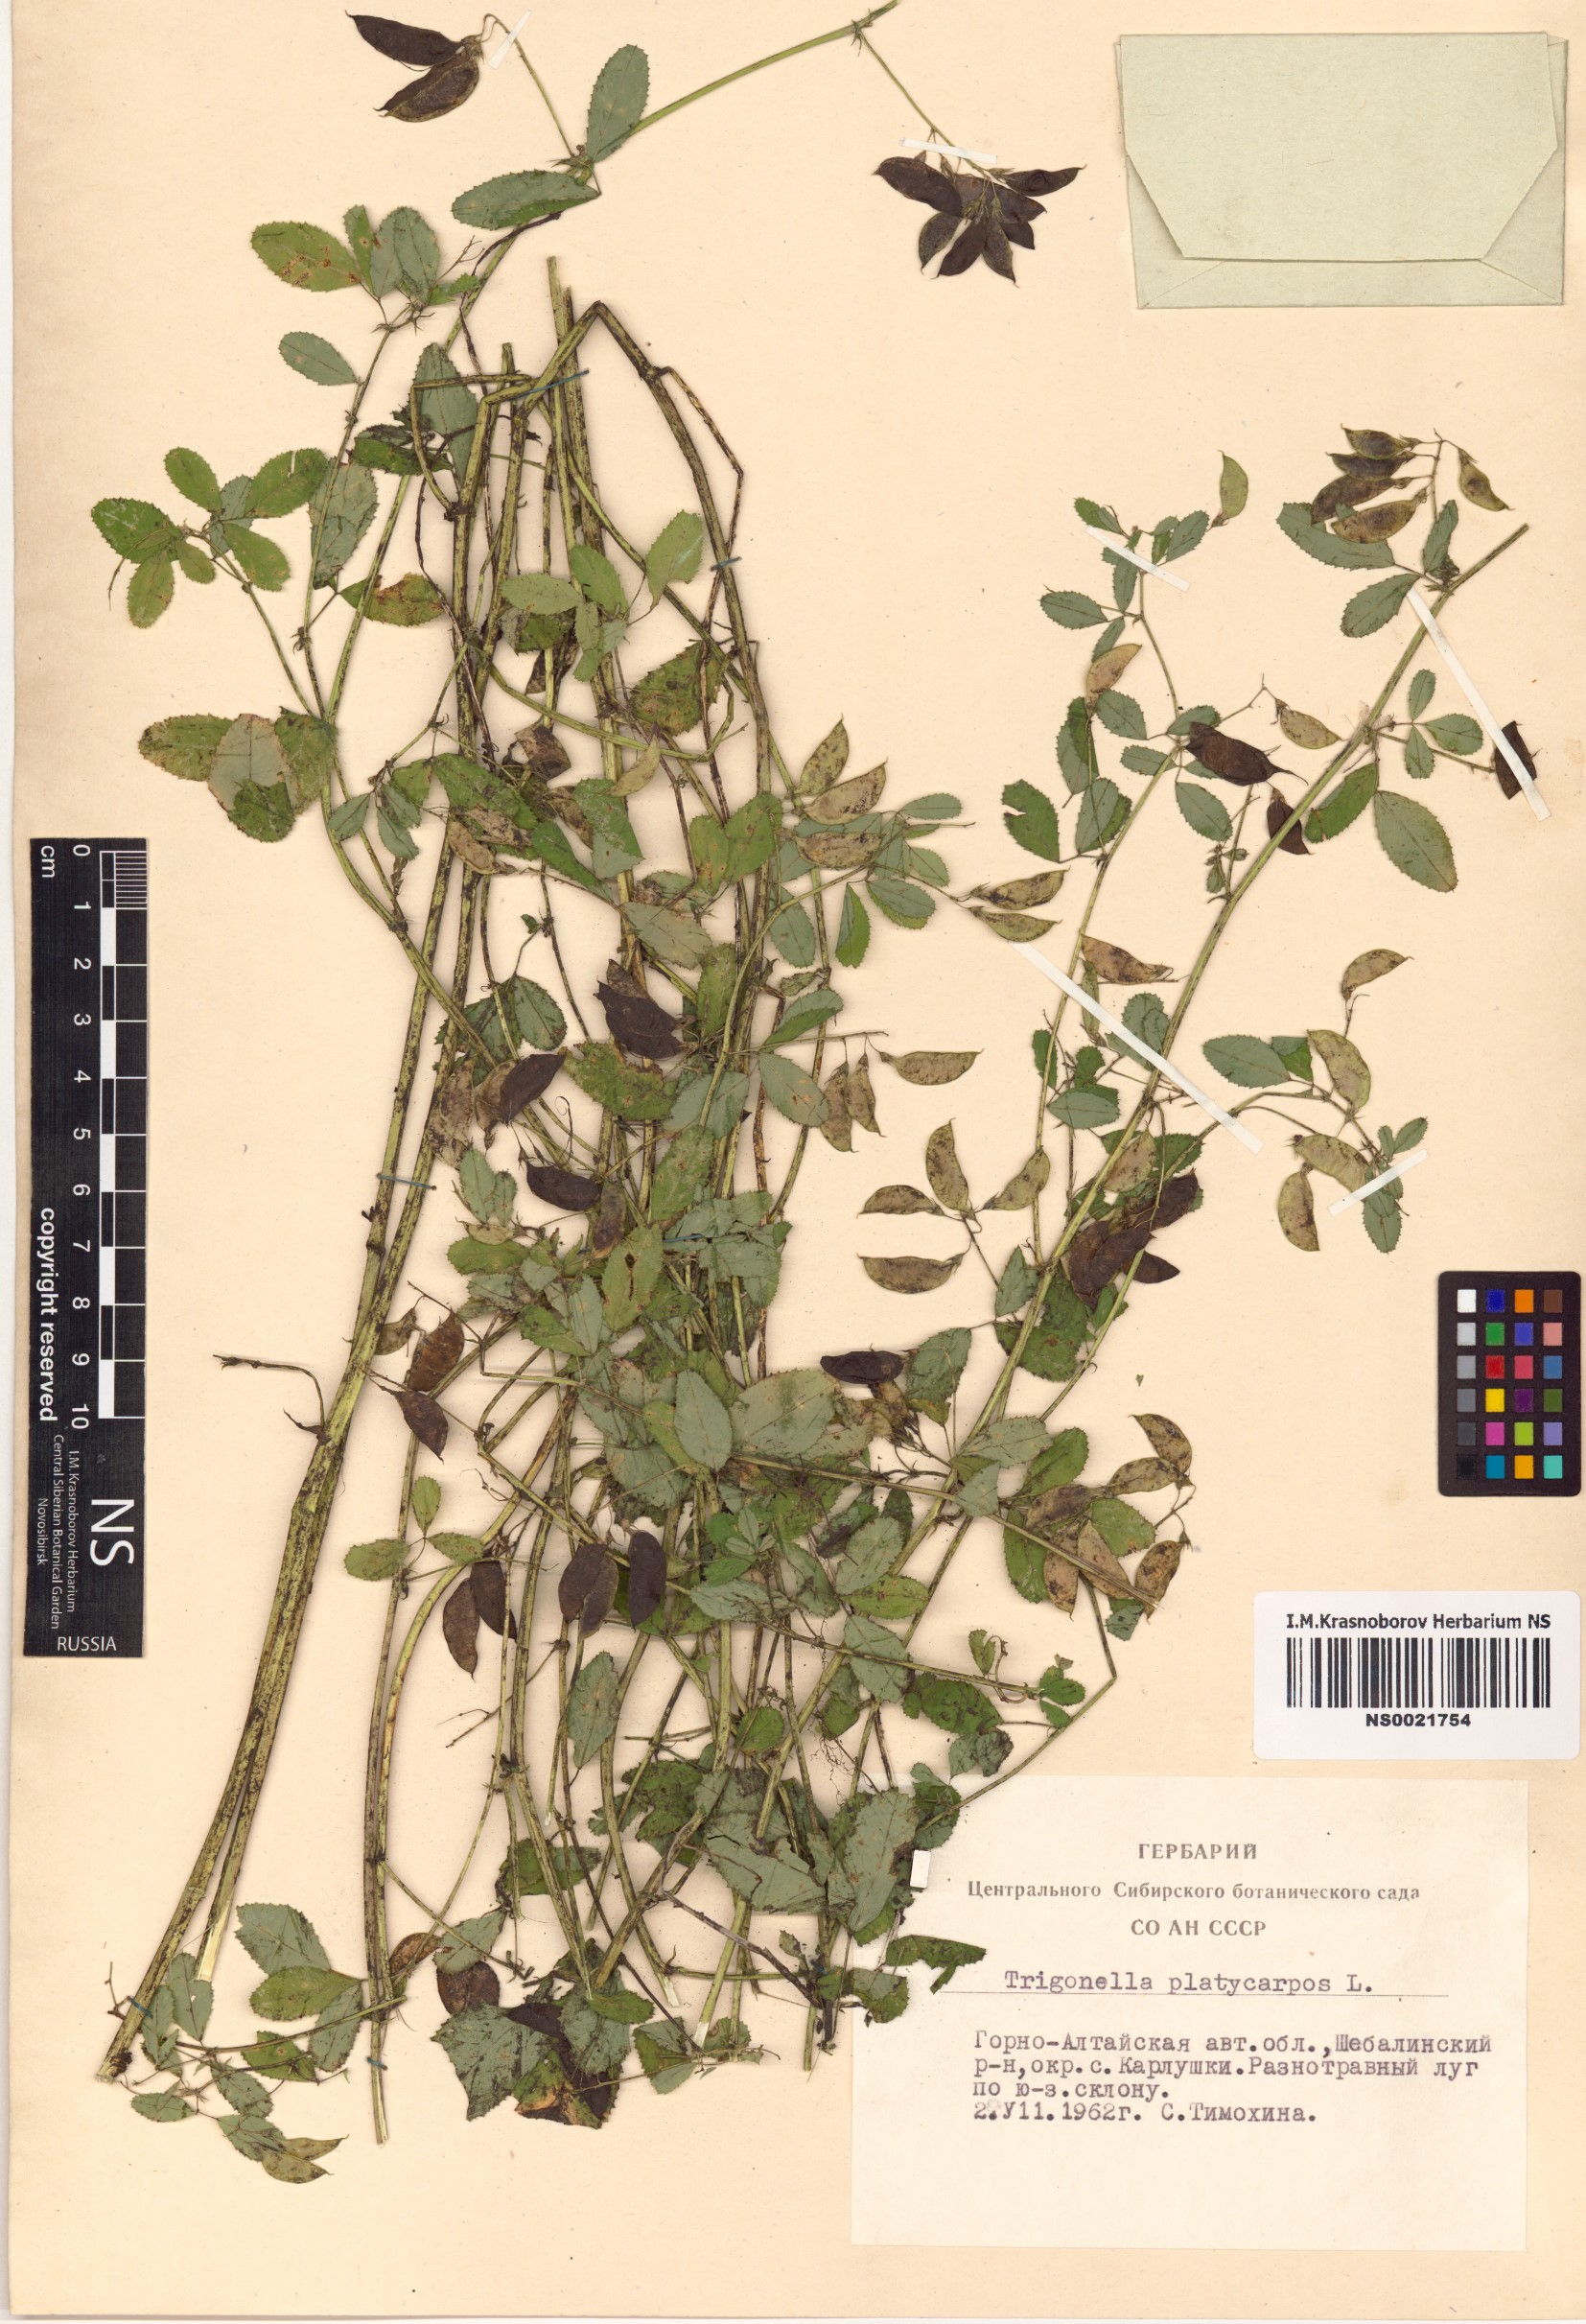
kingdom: Plantae
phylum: Tracheophyta
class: Magnoliopsida
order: Fabales
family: Fabaceae
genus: Medicago
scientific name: Medicago platycarpos
